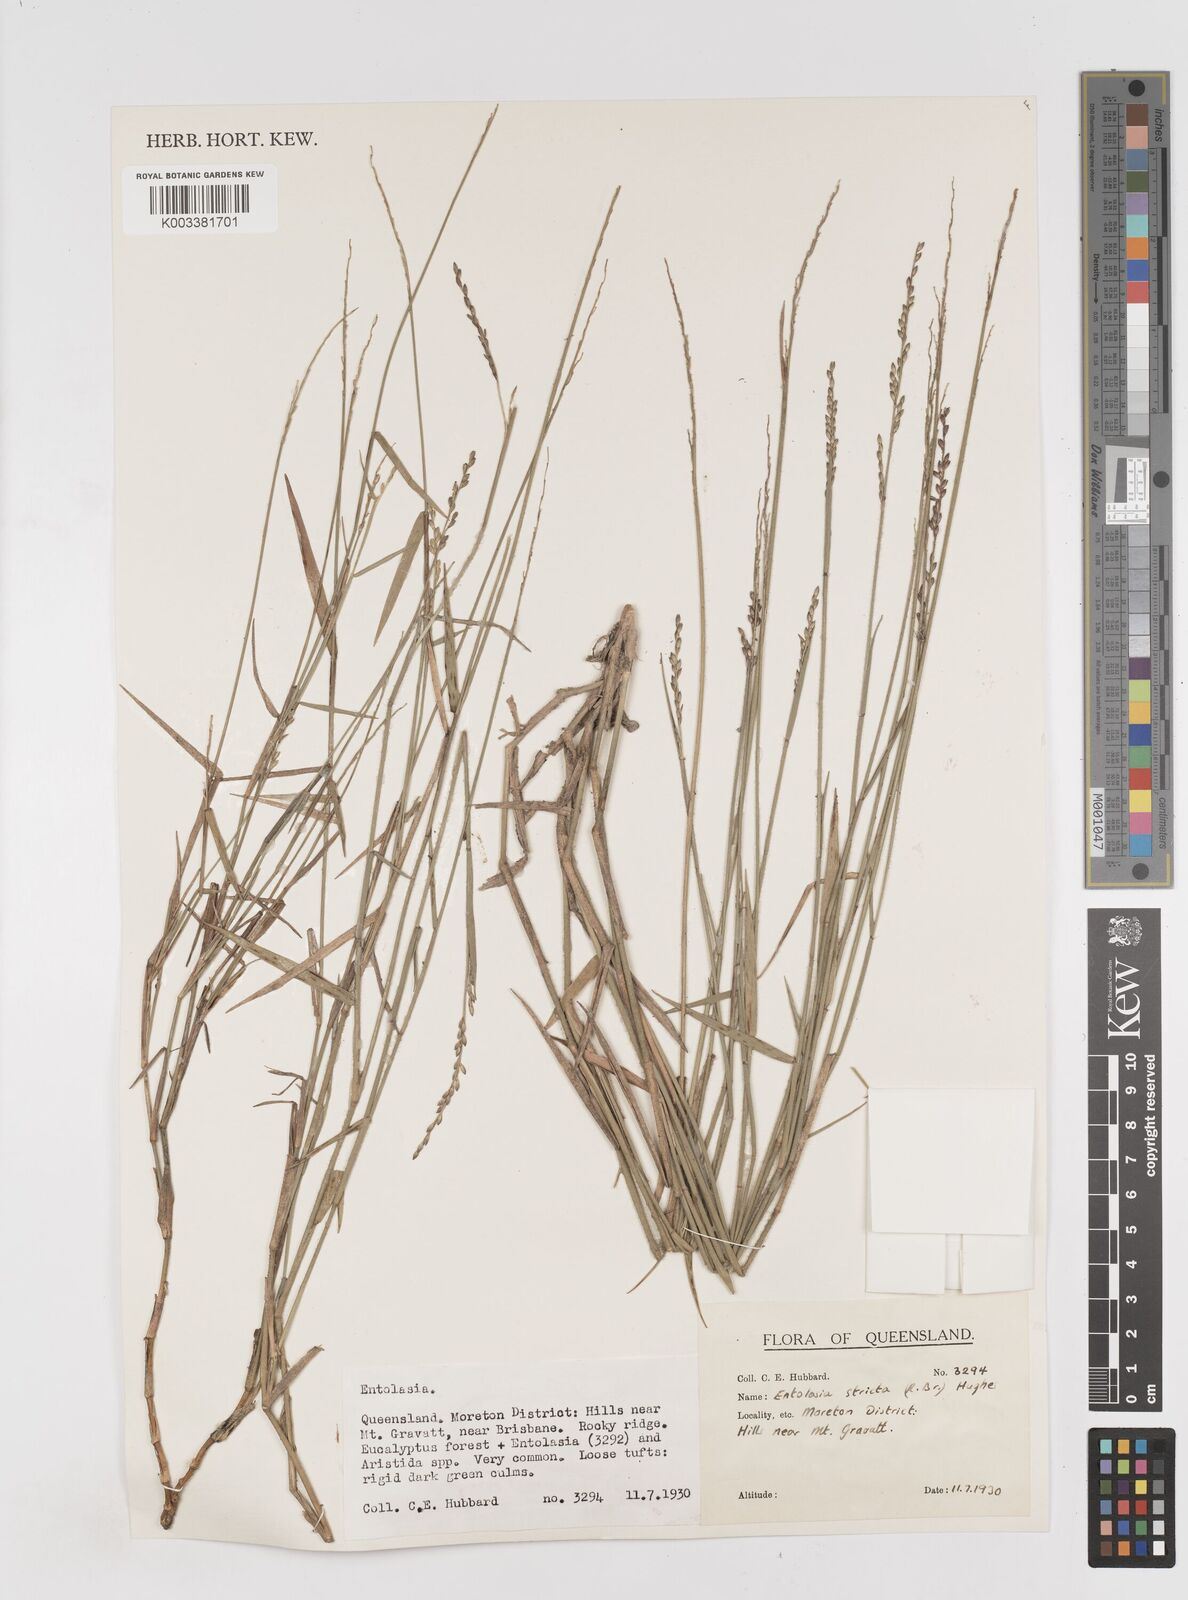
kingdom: Plantae
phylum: Tracheophyta
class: Liliopsida
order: Poales
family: Poaceae
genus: Entolasia
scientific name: Entolasia stricta
